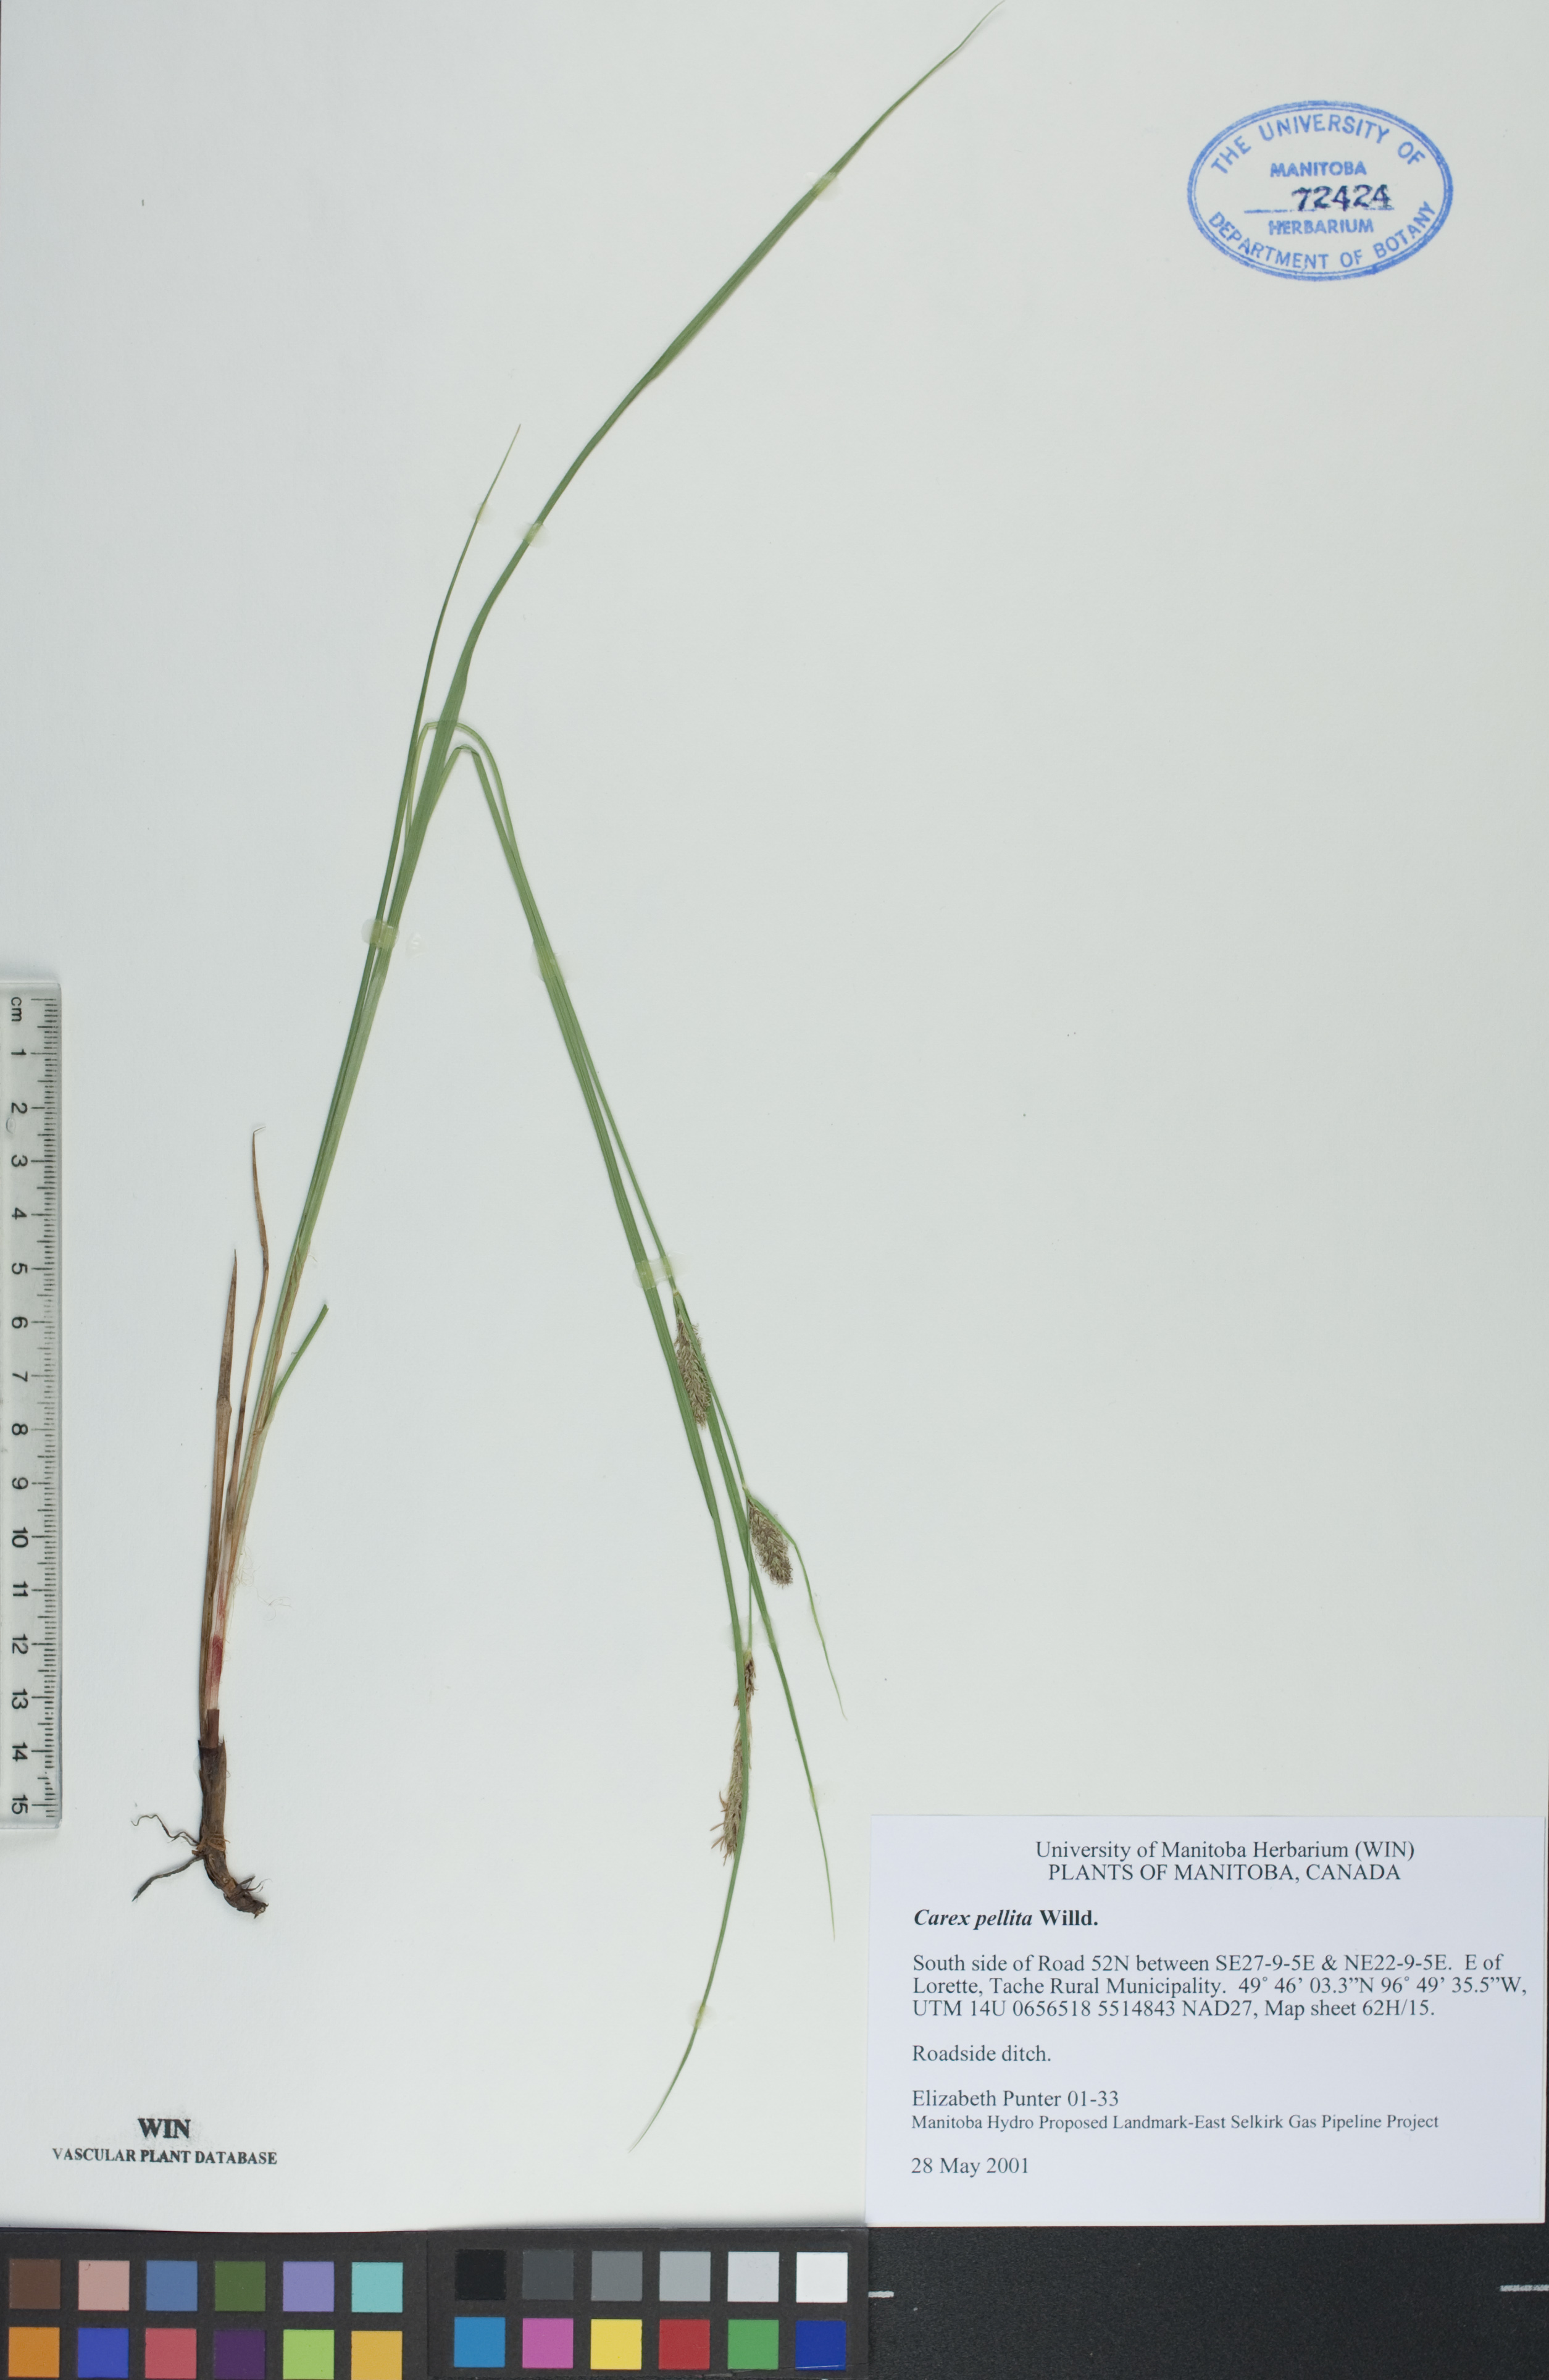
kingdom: Plantae
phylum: Tracheophyta
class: Liliopsida
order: Poales
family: Cyperaceae
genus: Carex
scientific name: Carex pellita
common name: Woolly sedge
